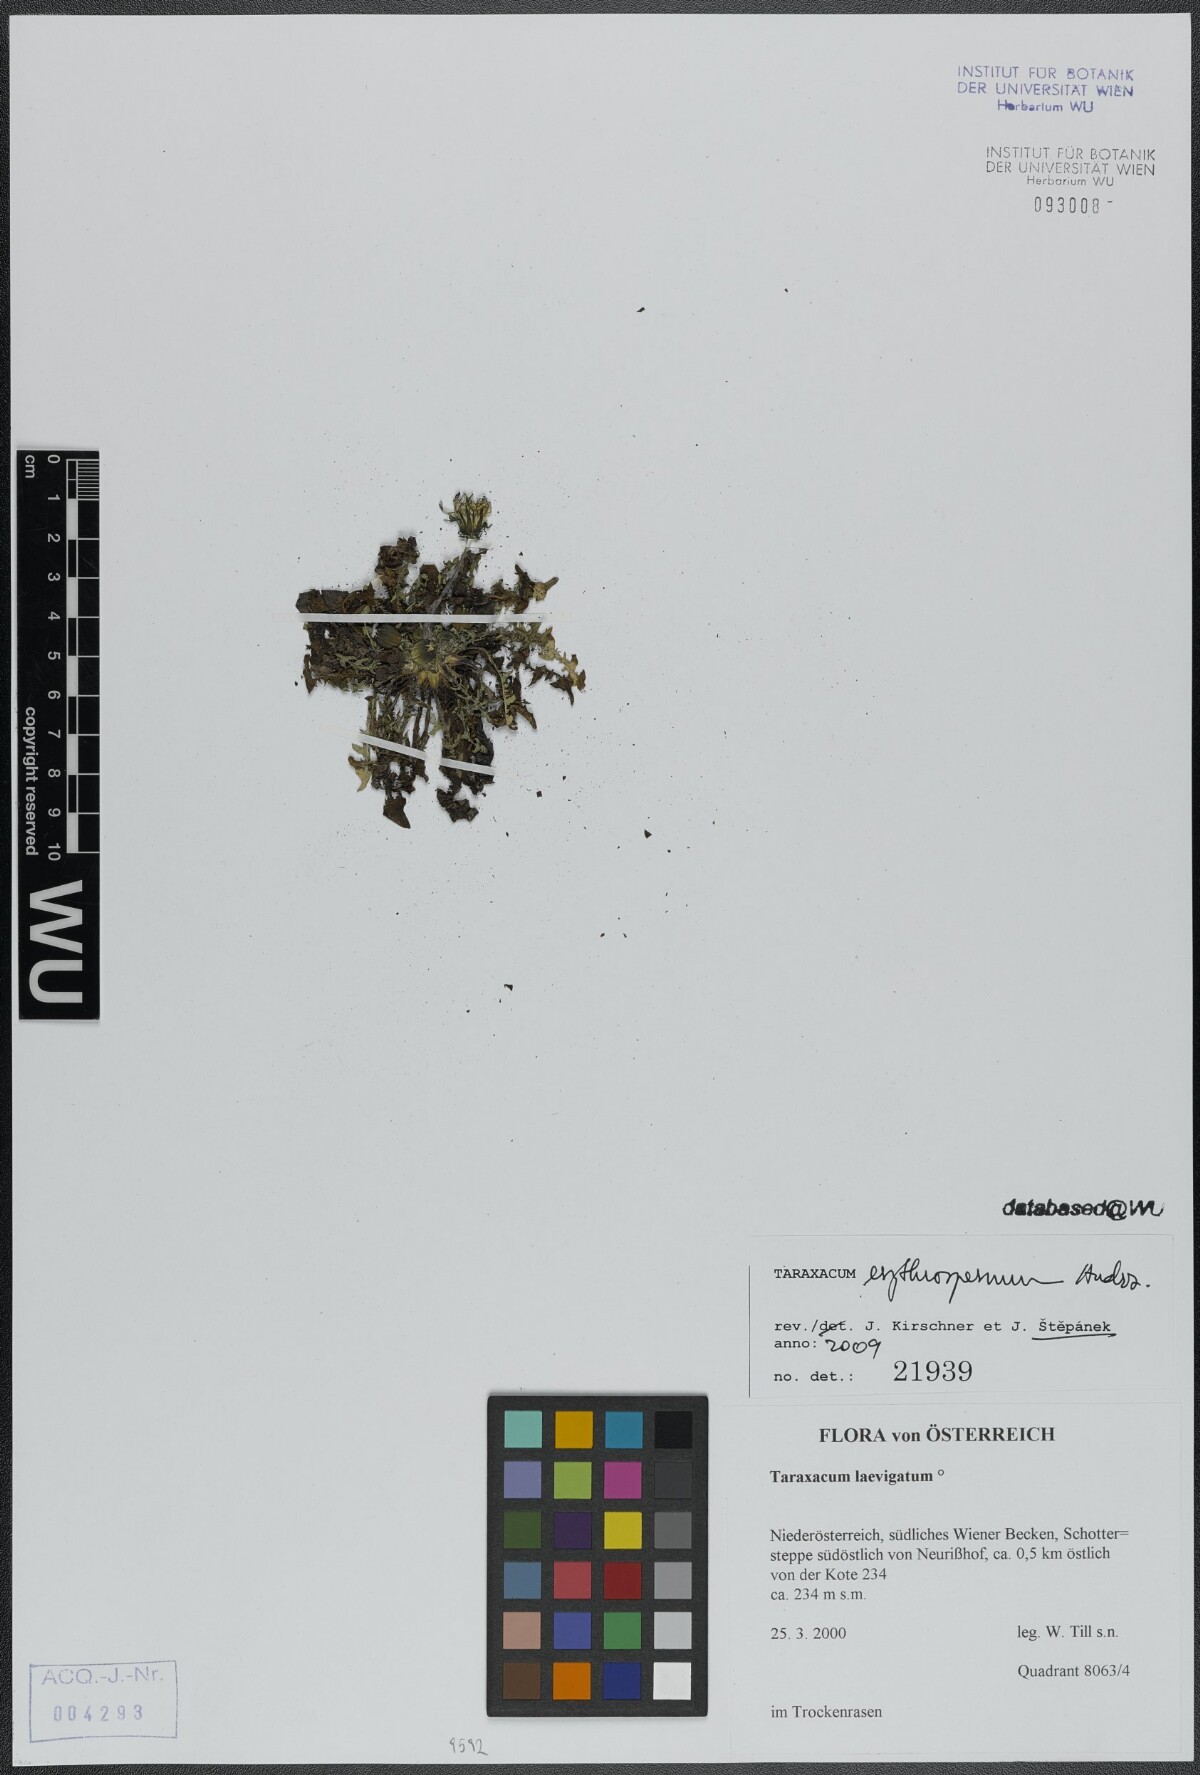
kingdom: Plantae
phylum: Tracheophyta
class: Magnoliopsida
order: Asterales
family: Asteraceae
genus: Taraxacum
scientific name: Taraxacum erythrospermum
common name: Rock dandelion
